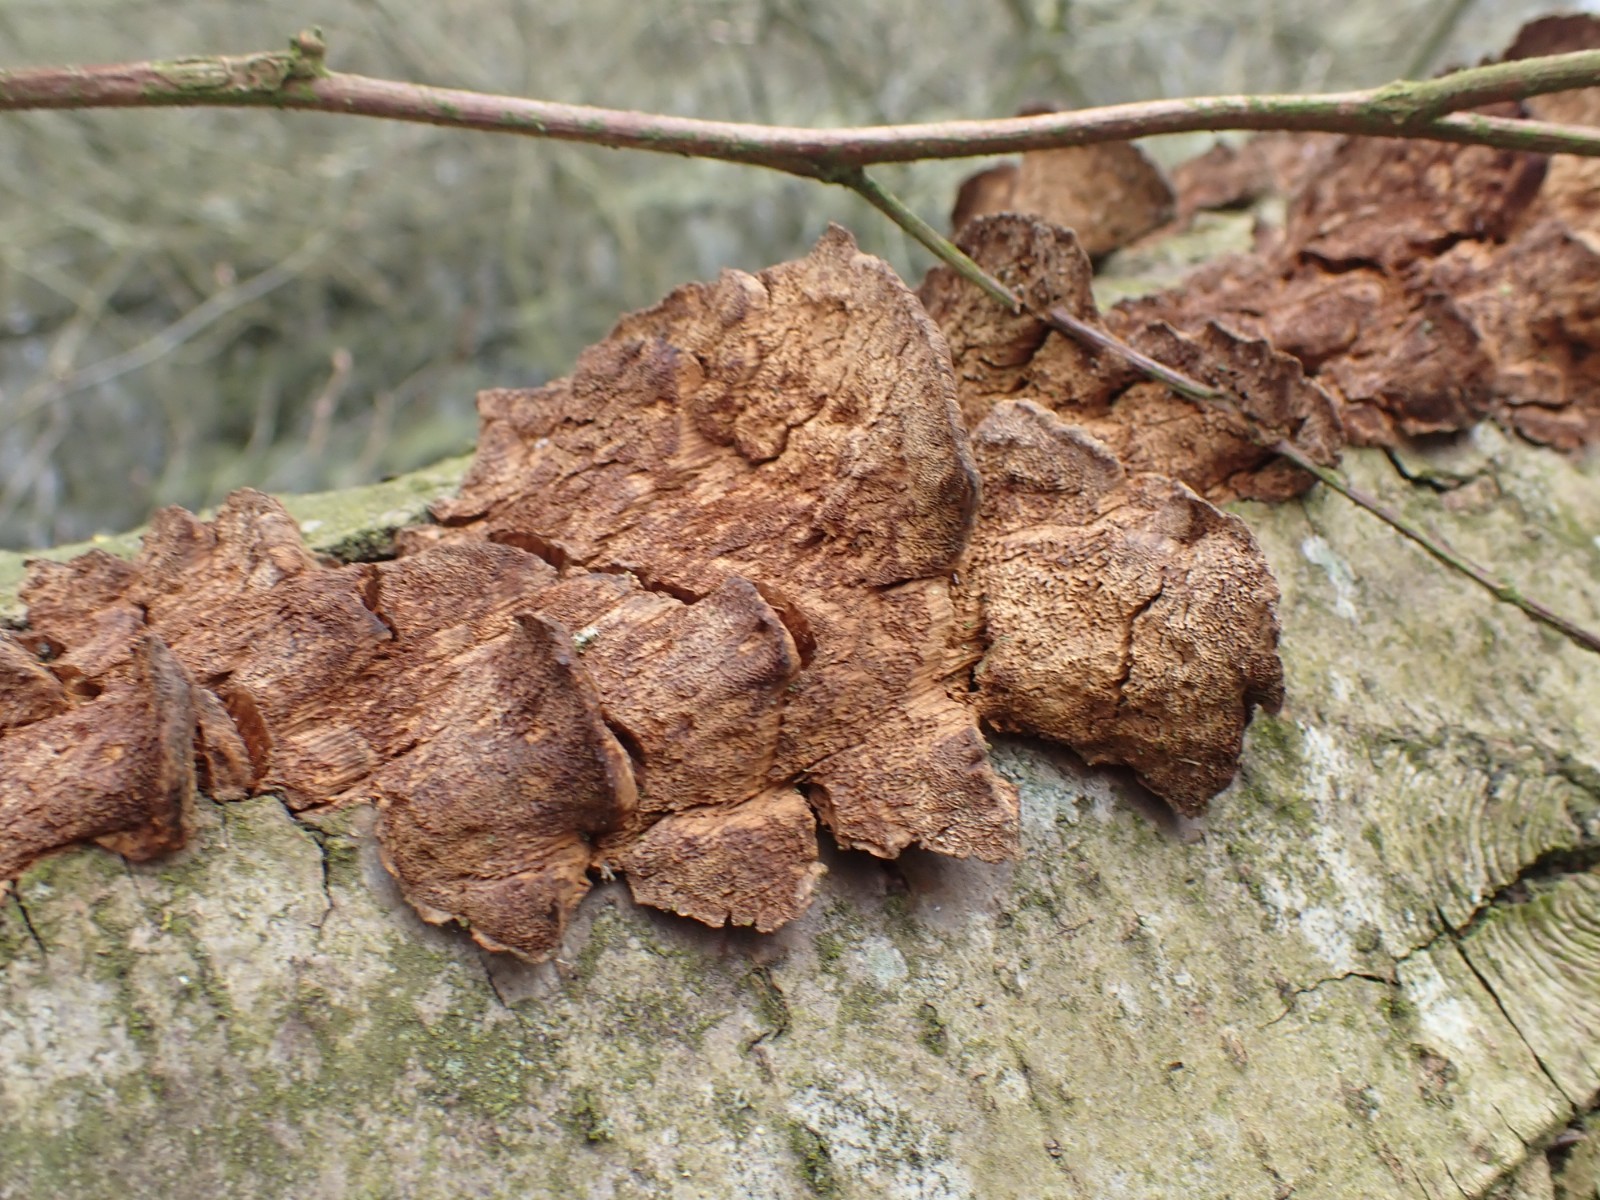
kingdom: Fungi
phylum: Basidiomycota
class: Agaricomycetes
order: Hymenochaetales
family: Hymenochaetaceae
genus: Xanthoporia
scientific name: Xanthoporia radiata
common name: elle-spejlporesvamp
